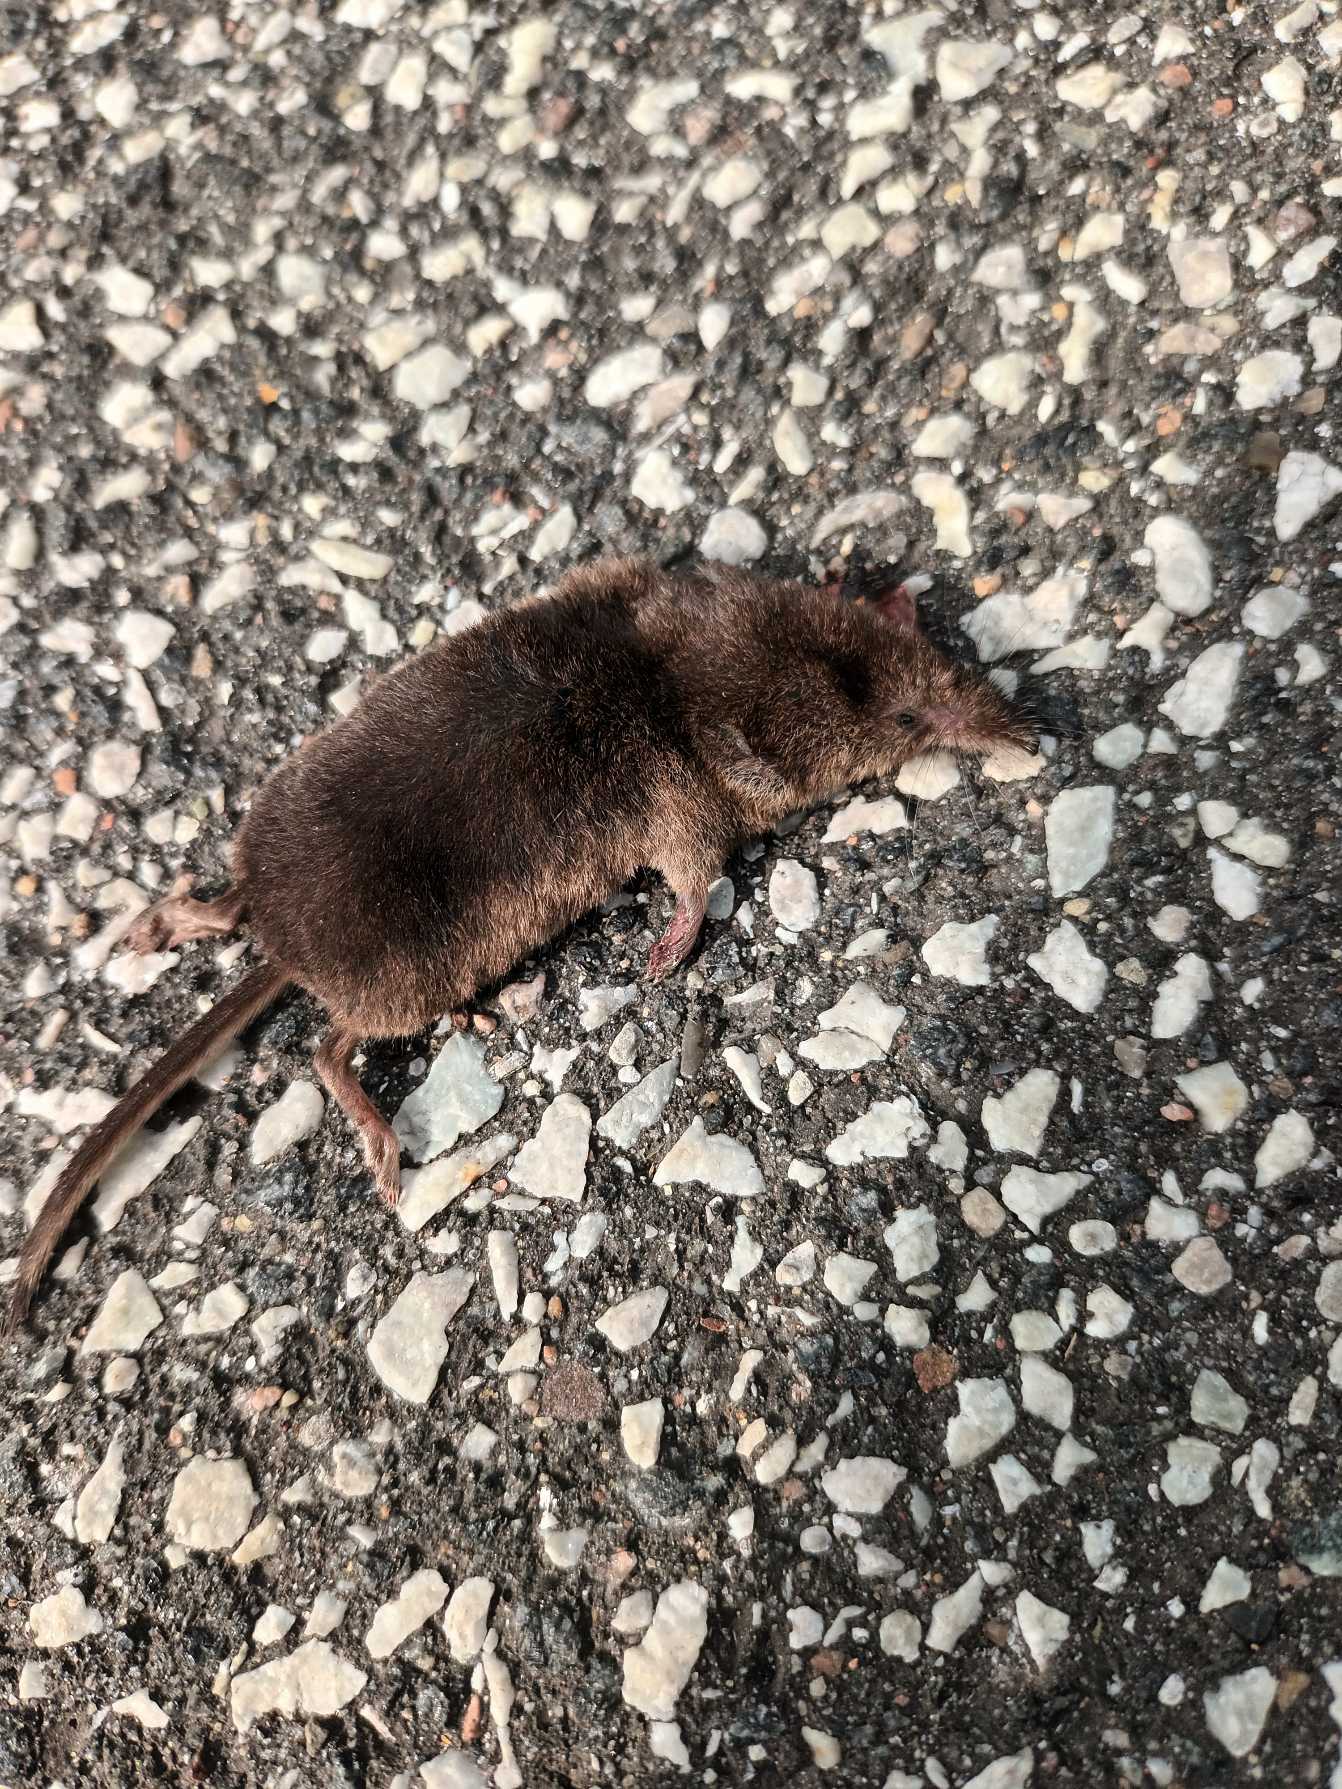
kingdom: Animalia
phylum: Chordata
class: Mammalia
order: Soricomorpha
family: Soricidae
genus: Sorex
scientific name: Sorex araneus
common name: Almindelig spidsmus
